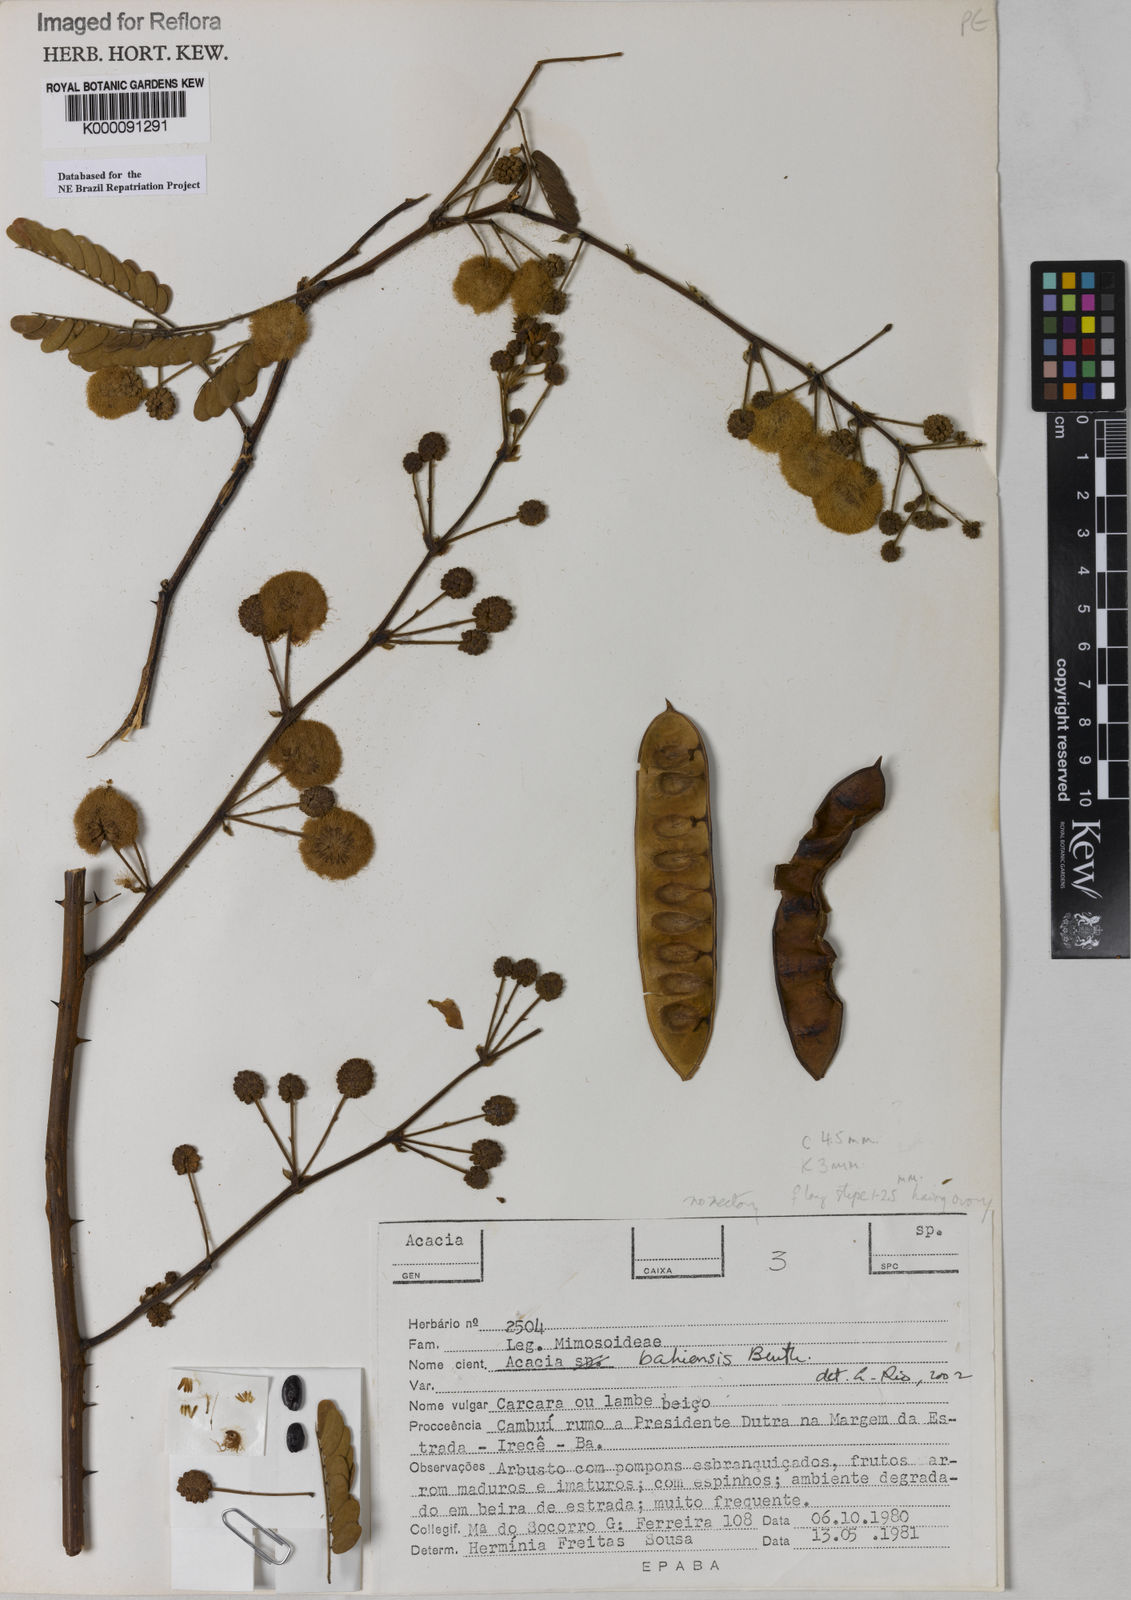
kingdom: Plantae
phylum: Tracheophyta
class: Magnoliopsida
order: Fabales
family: Fabaceae
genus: Senegalia
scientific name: Senegalia bahiensis
